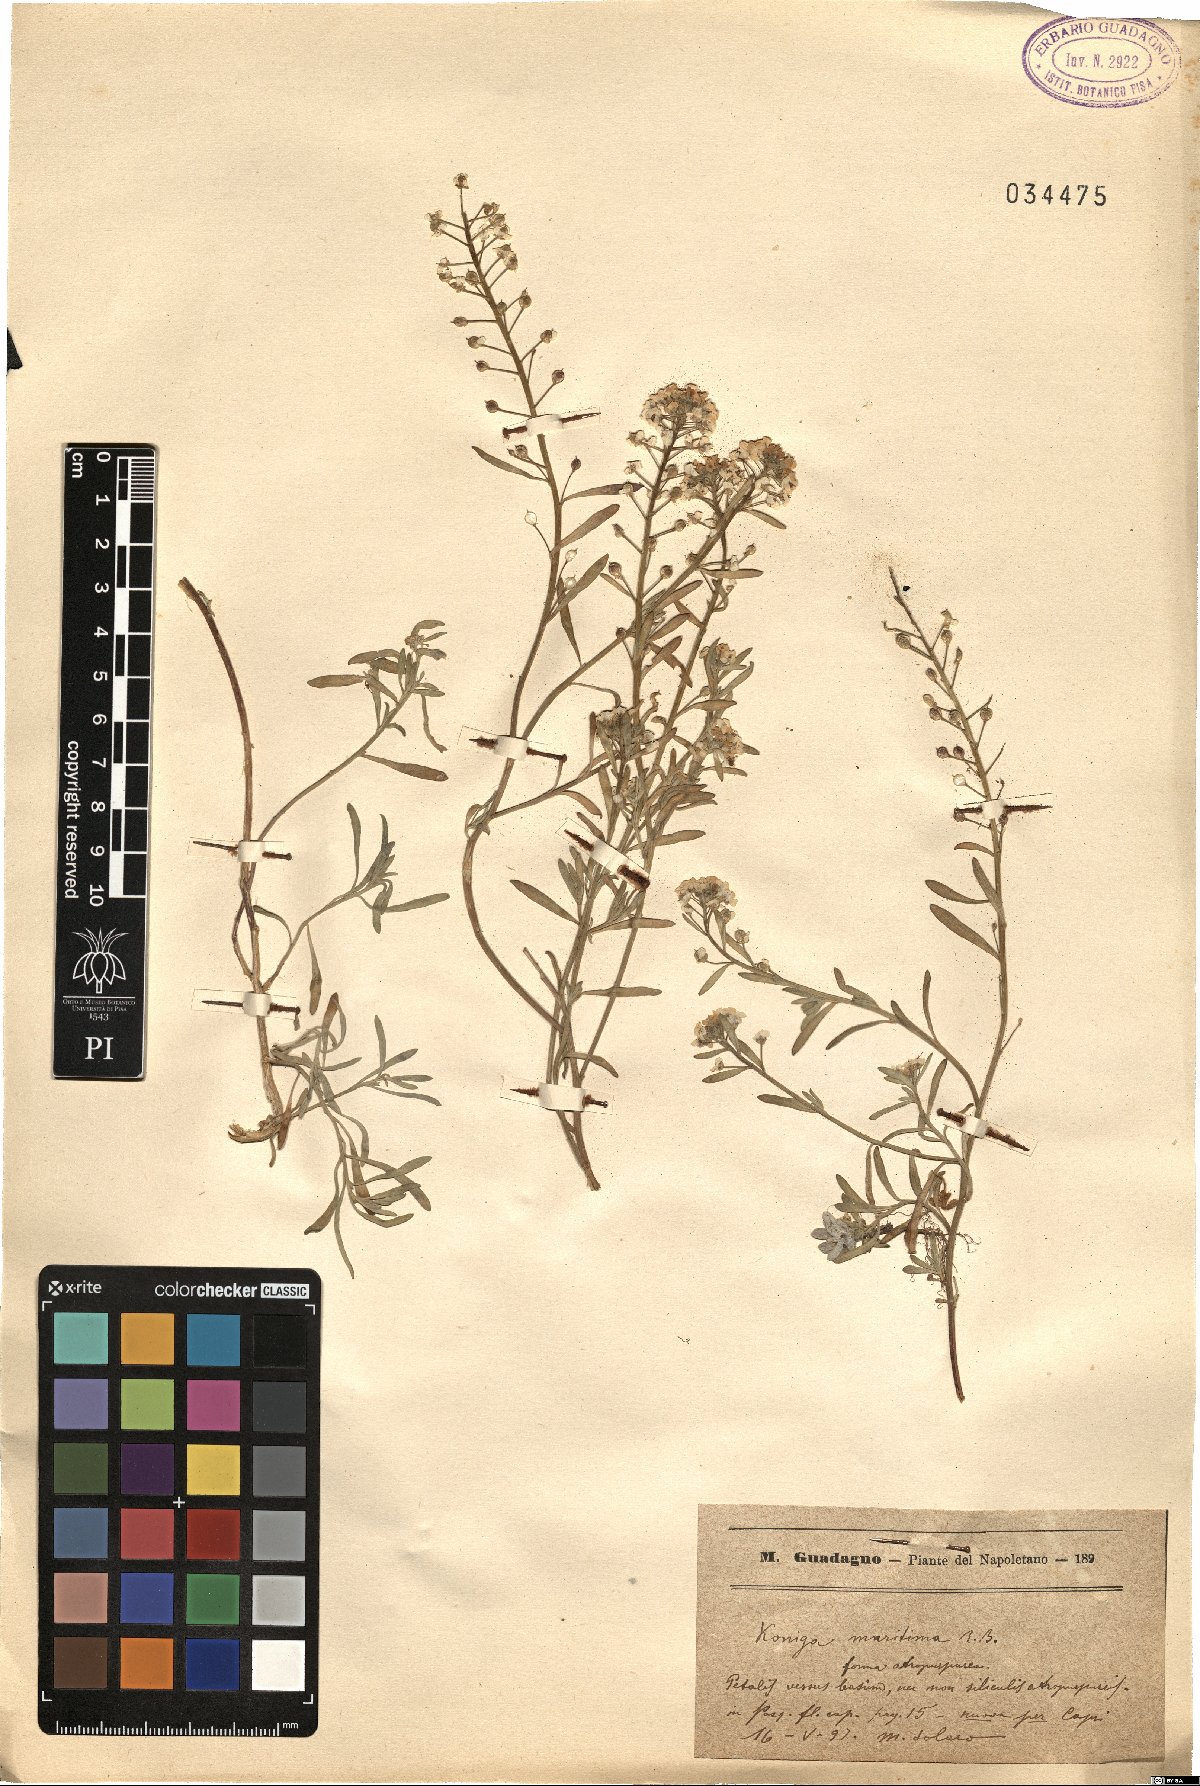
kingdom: Plantae
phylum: Tracheophyta
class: Magnoliopsida
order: Brassicales
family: Brassicaceae
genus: Lobularia
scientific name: Lobularia maritima
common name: Sweet alison
